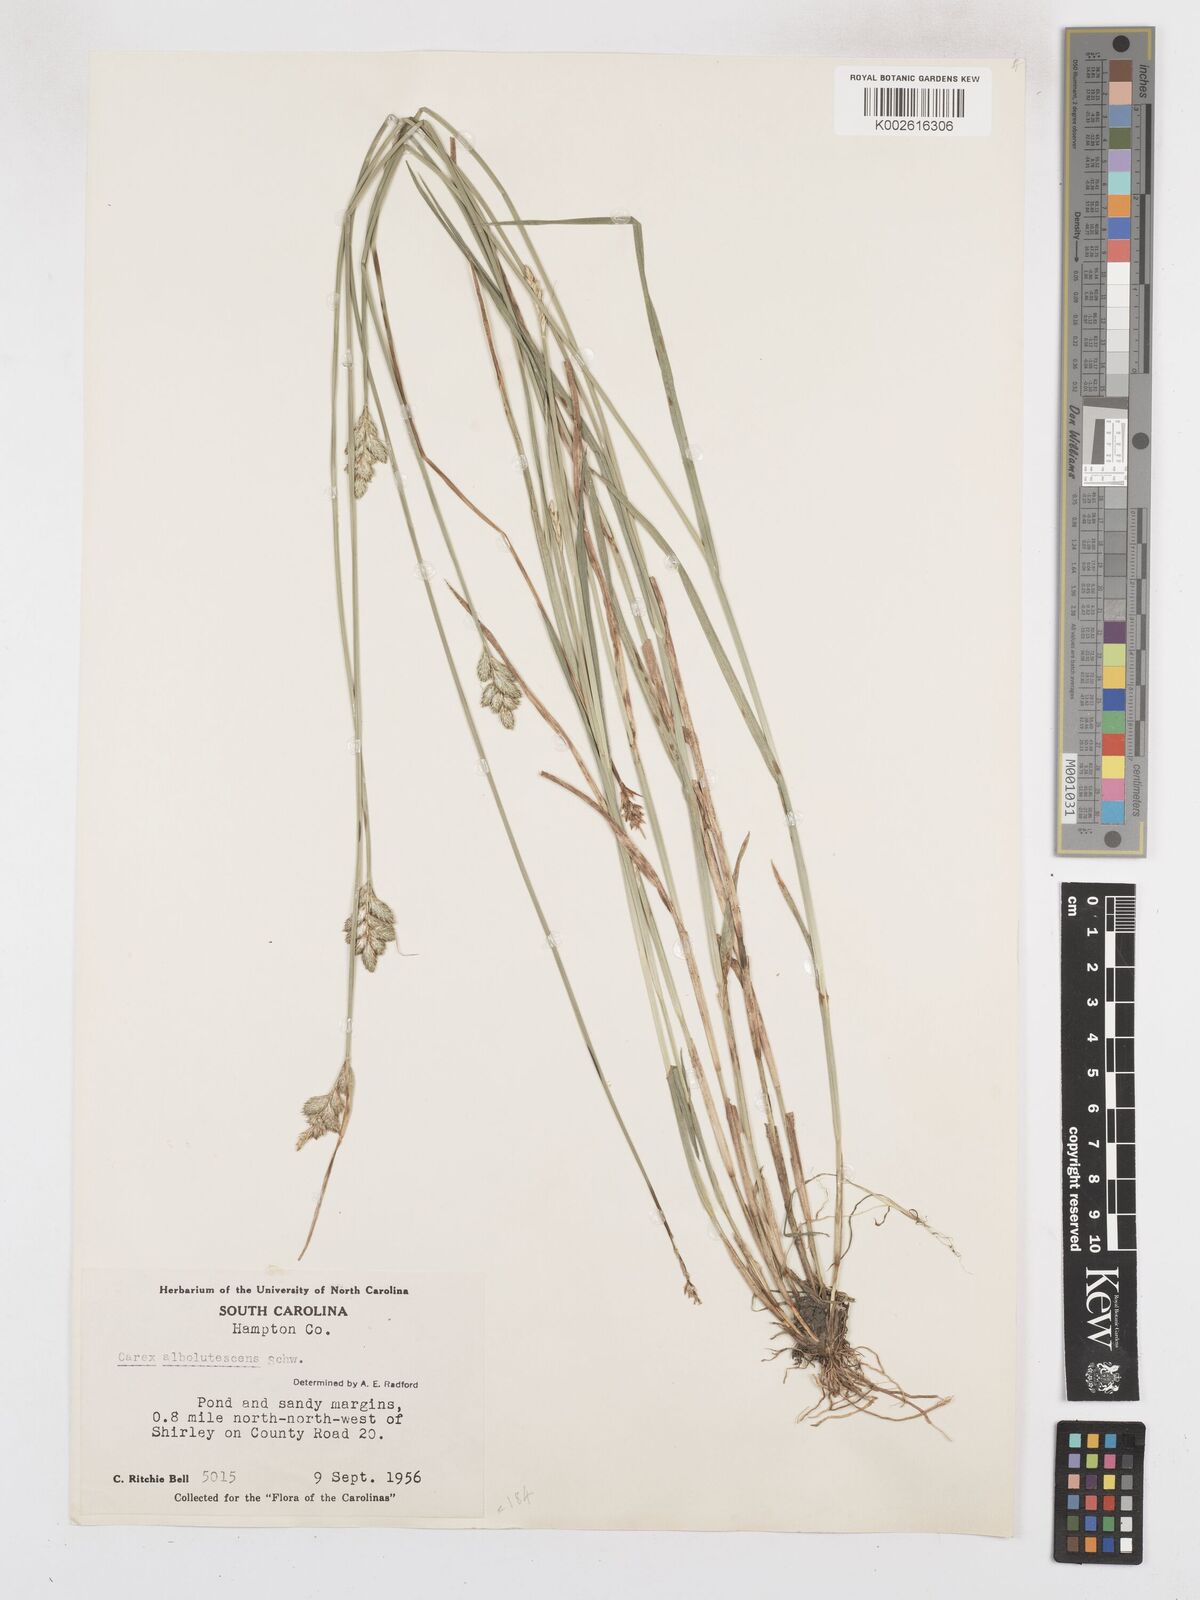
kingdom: Plantae
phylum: Tracheophyta
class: Liliopsida
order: Poales
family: Cyperaceae
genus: Carex
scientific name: Carex albolutescens
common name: Freenish white sedge
